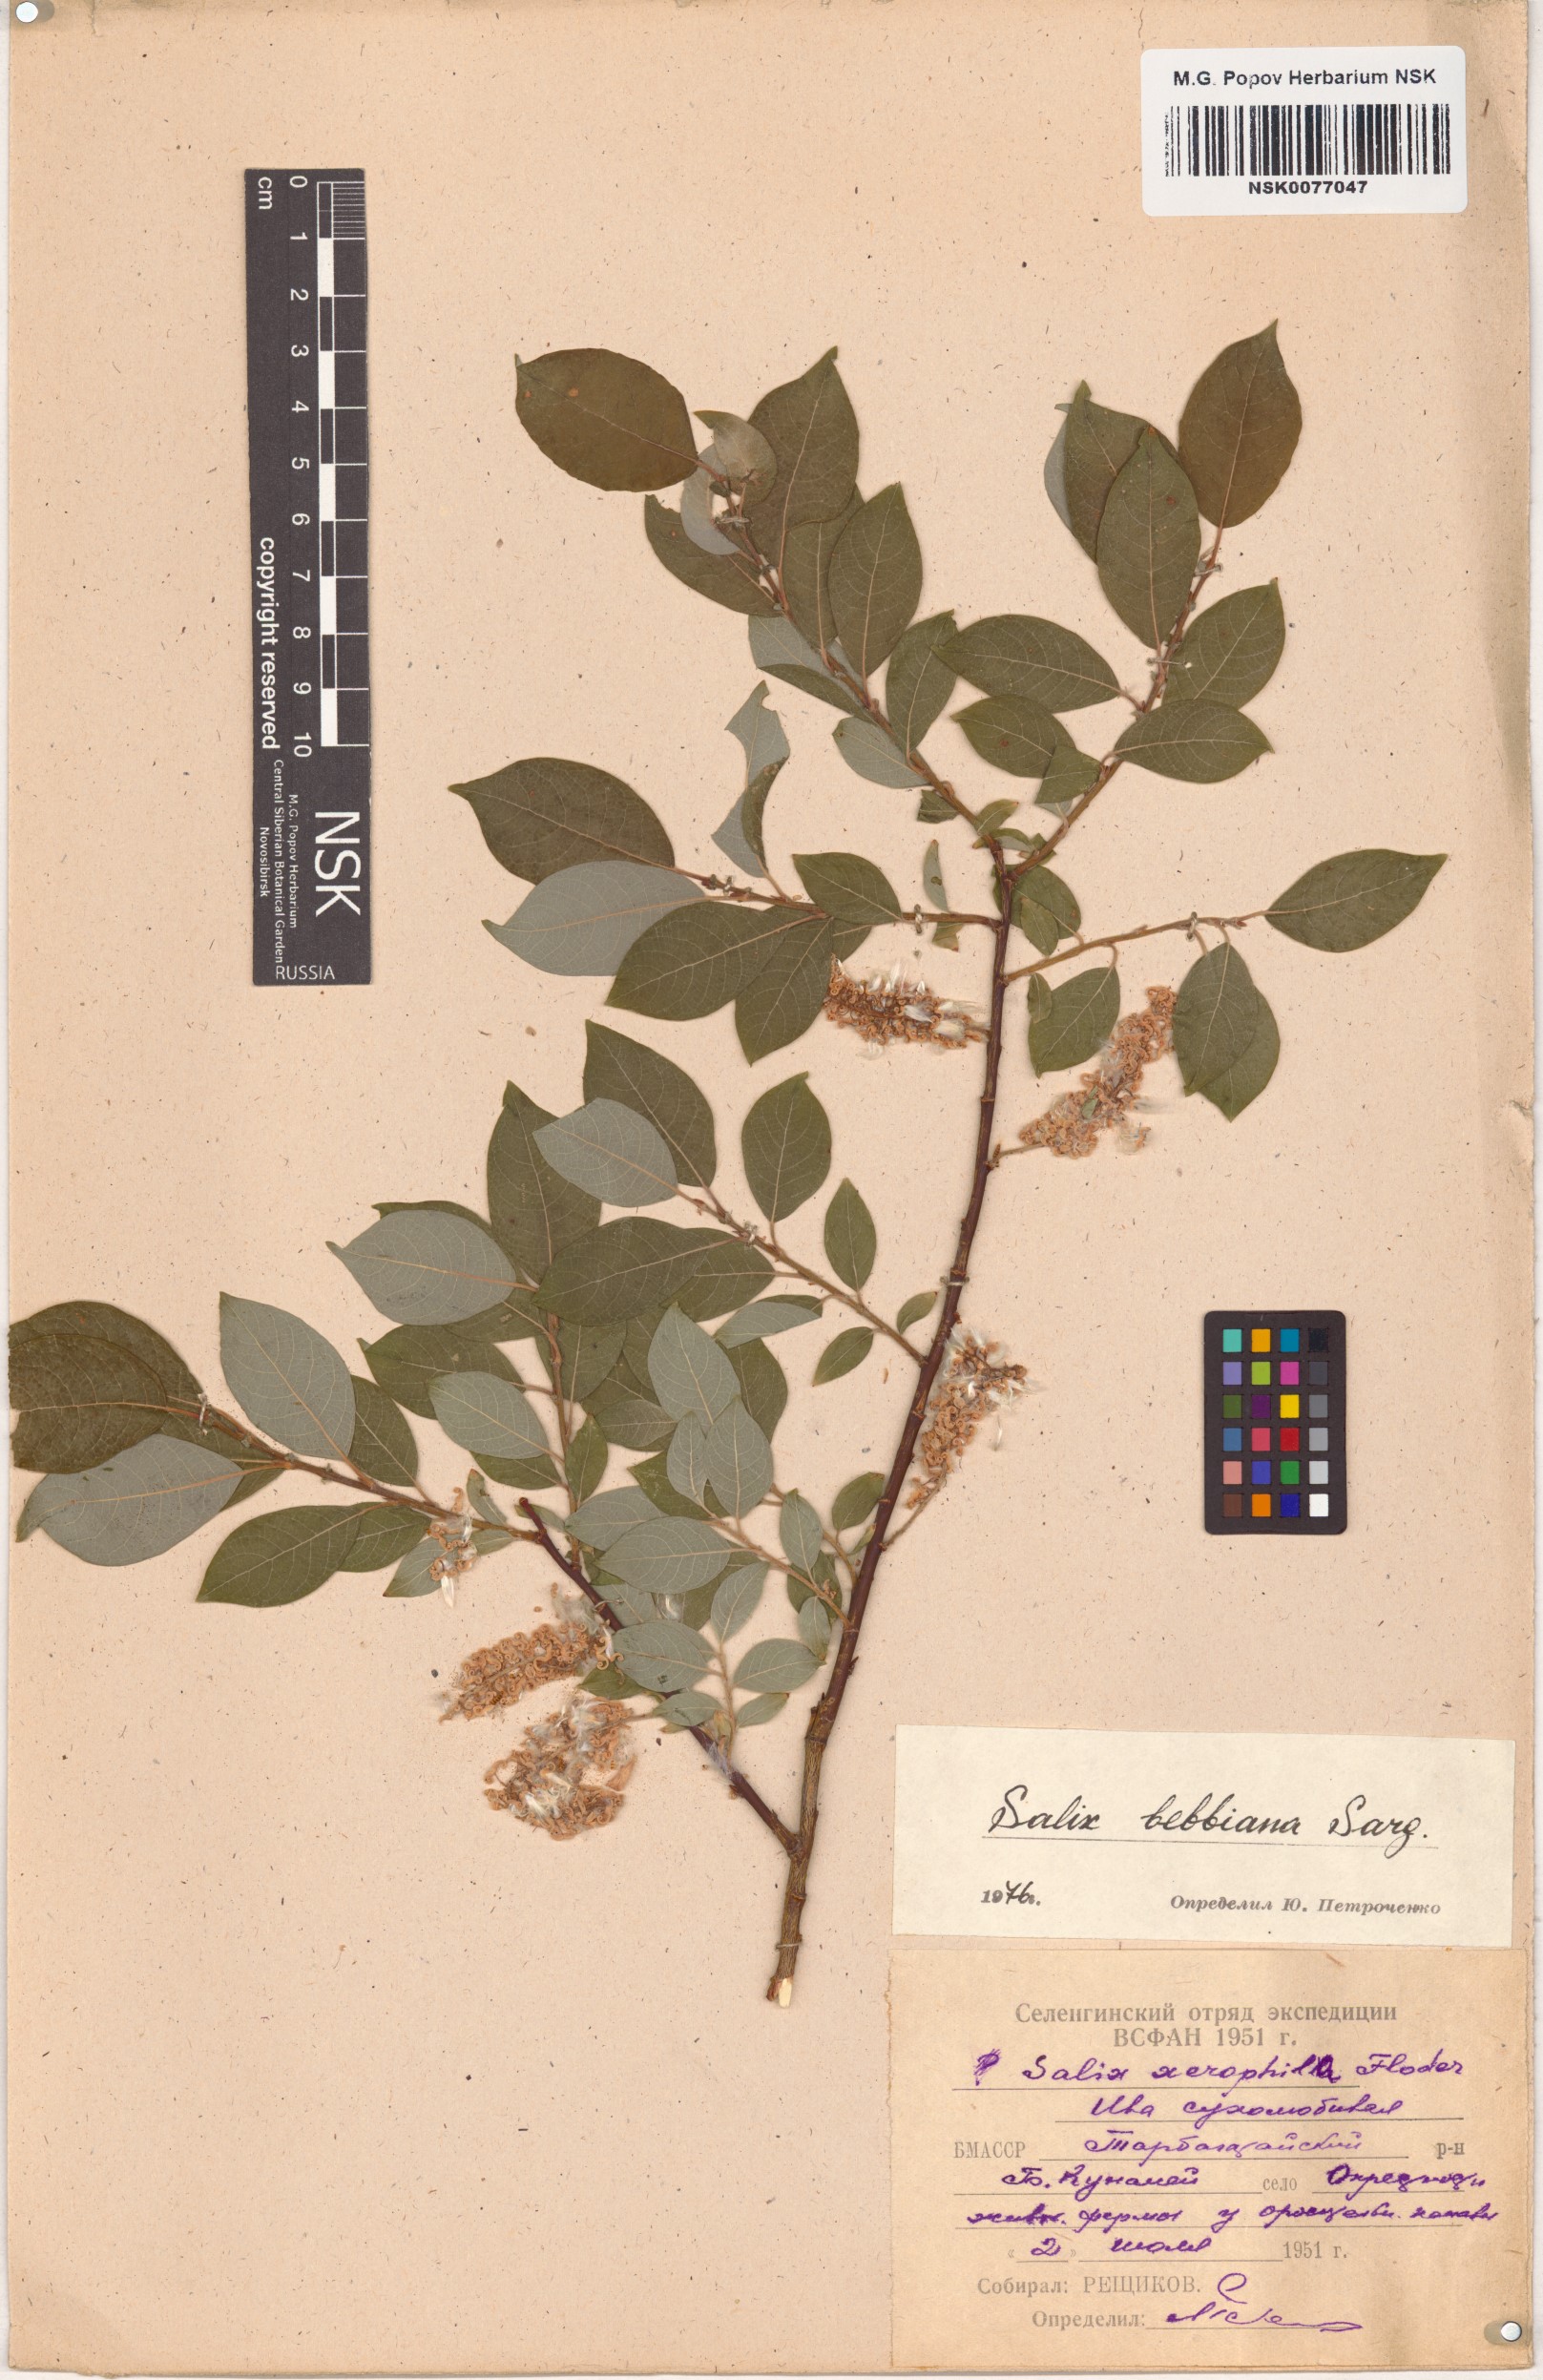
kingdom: Plantae
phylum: Tracheophyta
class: Magnoliopsida
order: Malpighiales
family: Salicaceae
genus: Salix
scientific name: Salix bebbiana
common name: Bebb's willow
